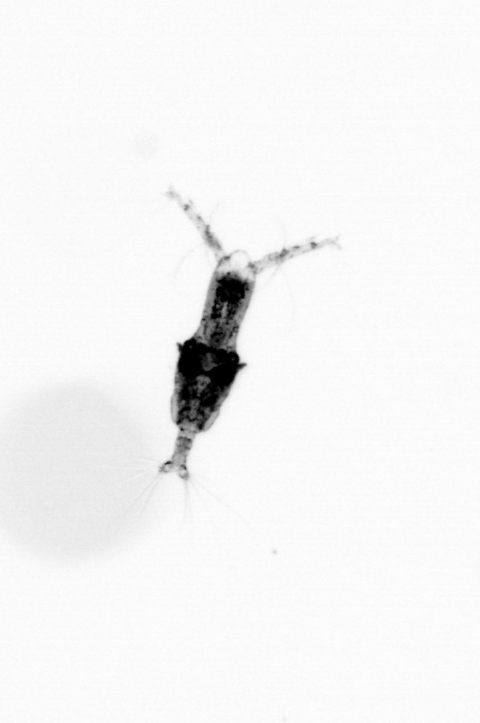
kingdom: Animalia
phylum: Arthropoda
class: Copepoda
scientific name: Copepoda
